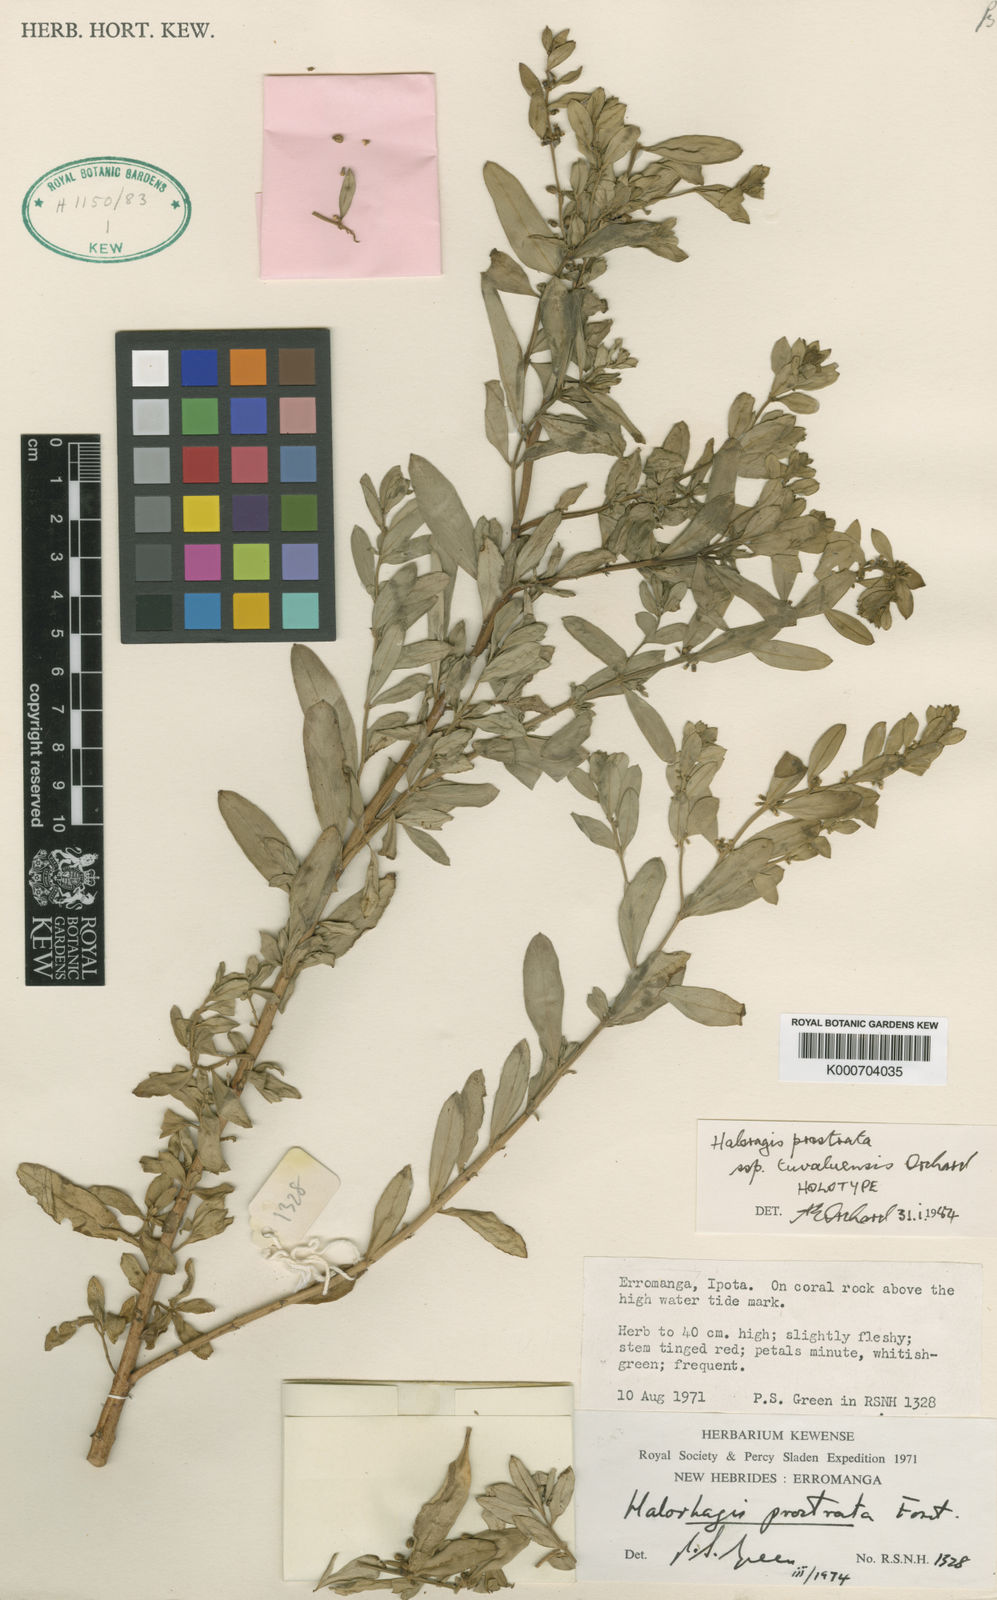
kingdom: Plantae
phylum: Tracheophyta
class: Magnoliopsida
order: Saxifragales
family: Haloragaceae
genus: Haloragis
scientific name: Haloragis prostrata
